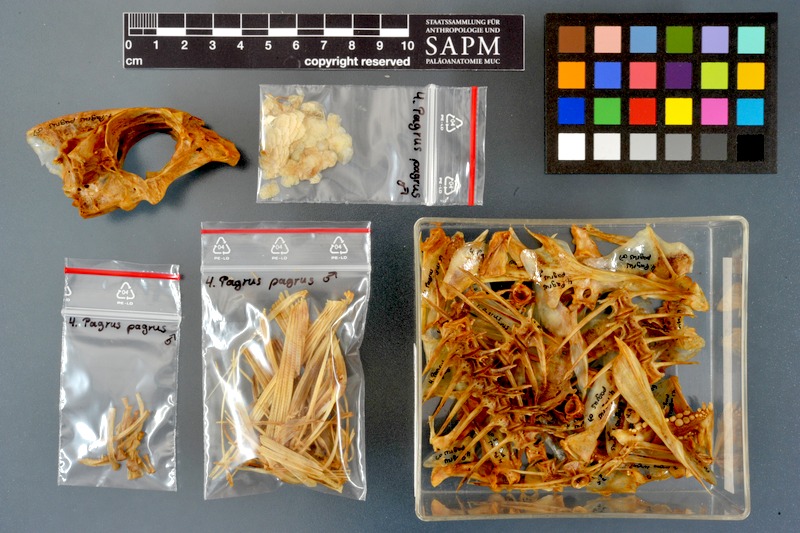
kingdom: Animalia
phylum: Chordata
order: Perciformes
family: Sparidae
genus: Pagrus
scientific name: Pagrus pagrus
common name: Red porgy
